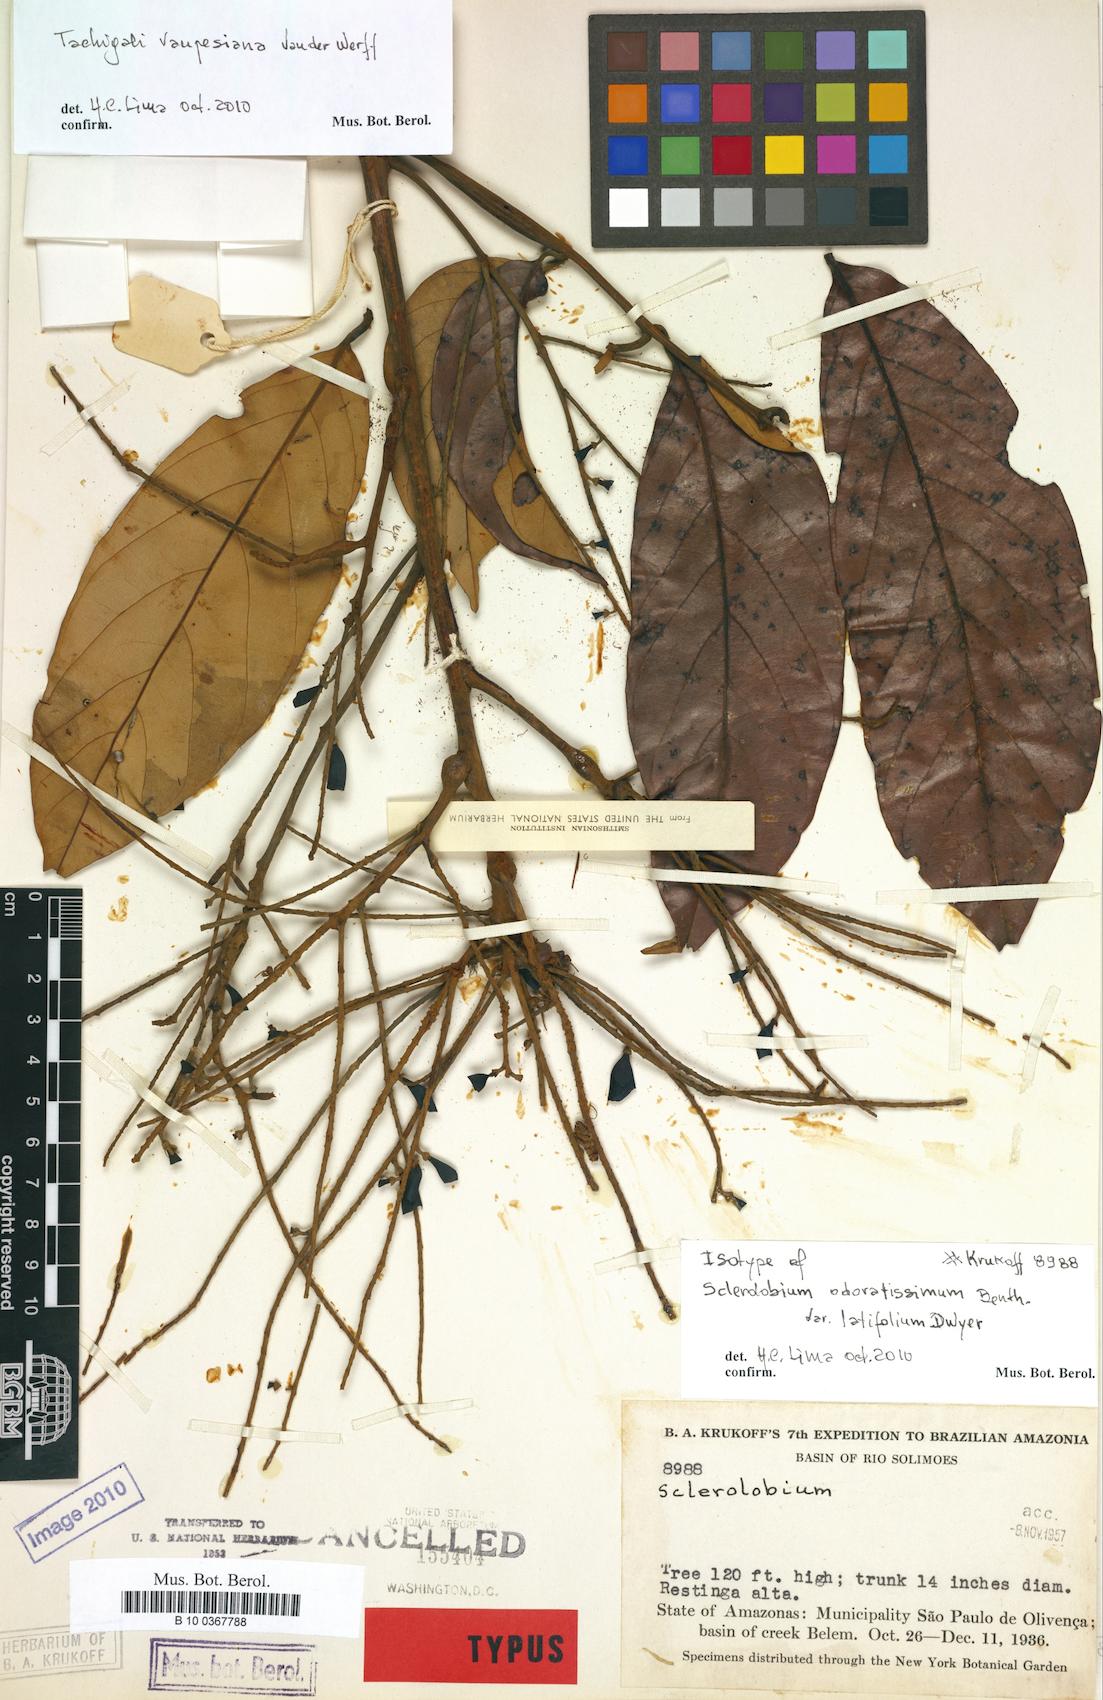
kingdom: Plantae
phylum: Tracheophyta
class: Magnoliopsida
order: Fabales
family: Fabaceae
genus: Tachigali
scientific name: Tachigali vaupesiana
